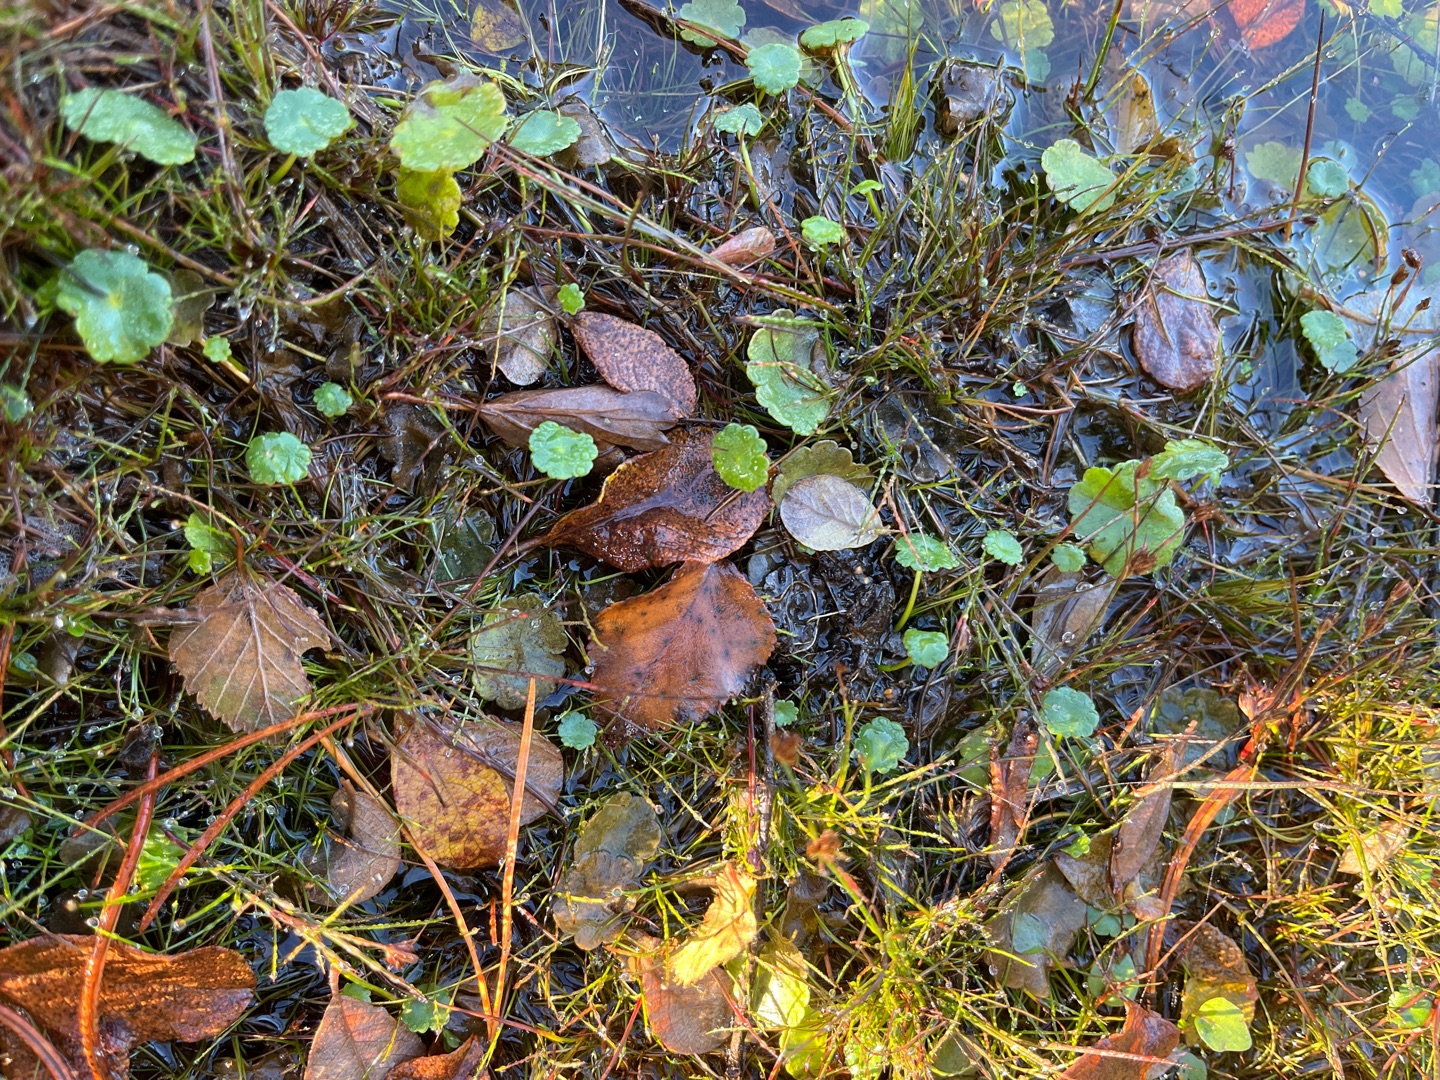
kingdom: Plantae
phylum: Tracheophyta
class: Magnoliopsida
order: Apiales
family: Araliaceae
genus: Hydrocotyle
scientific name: Hydrocotyle vulgaris
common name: Vandnavle
